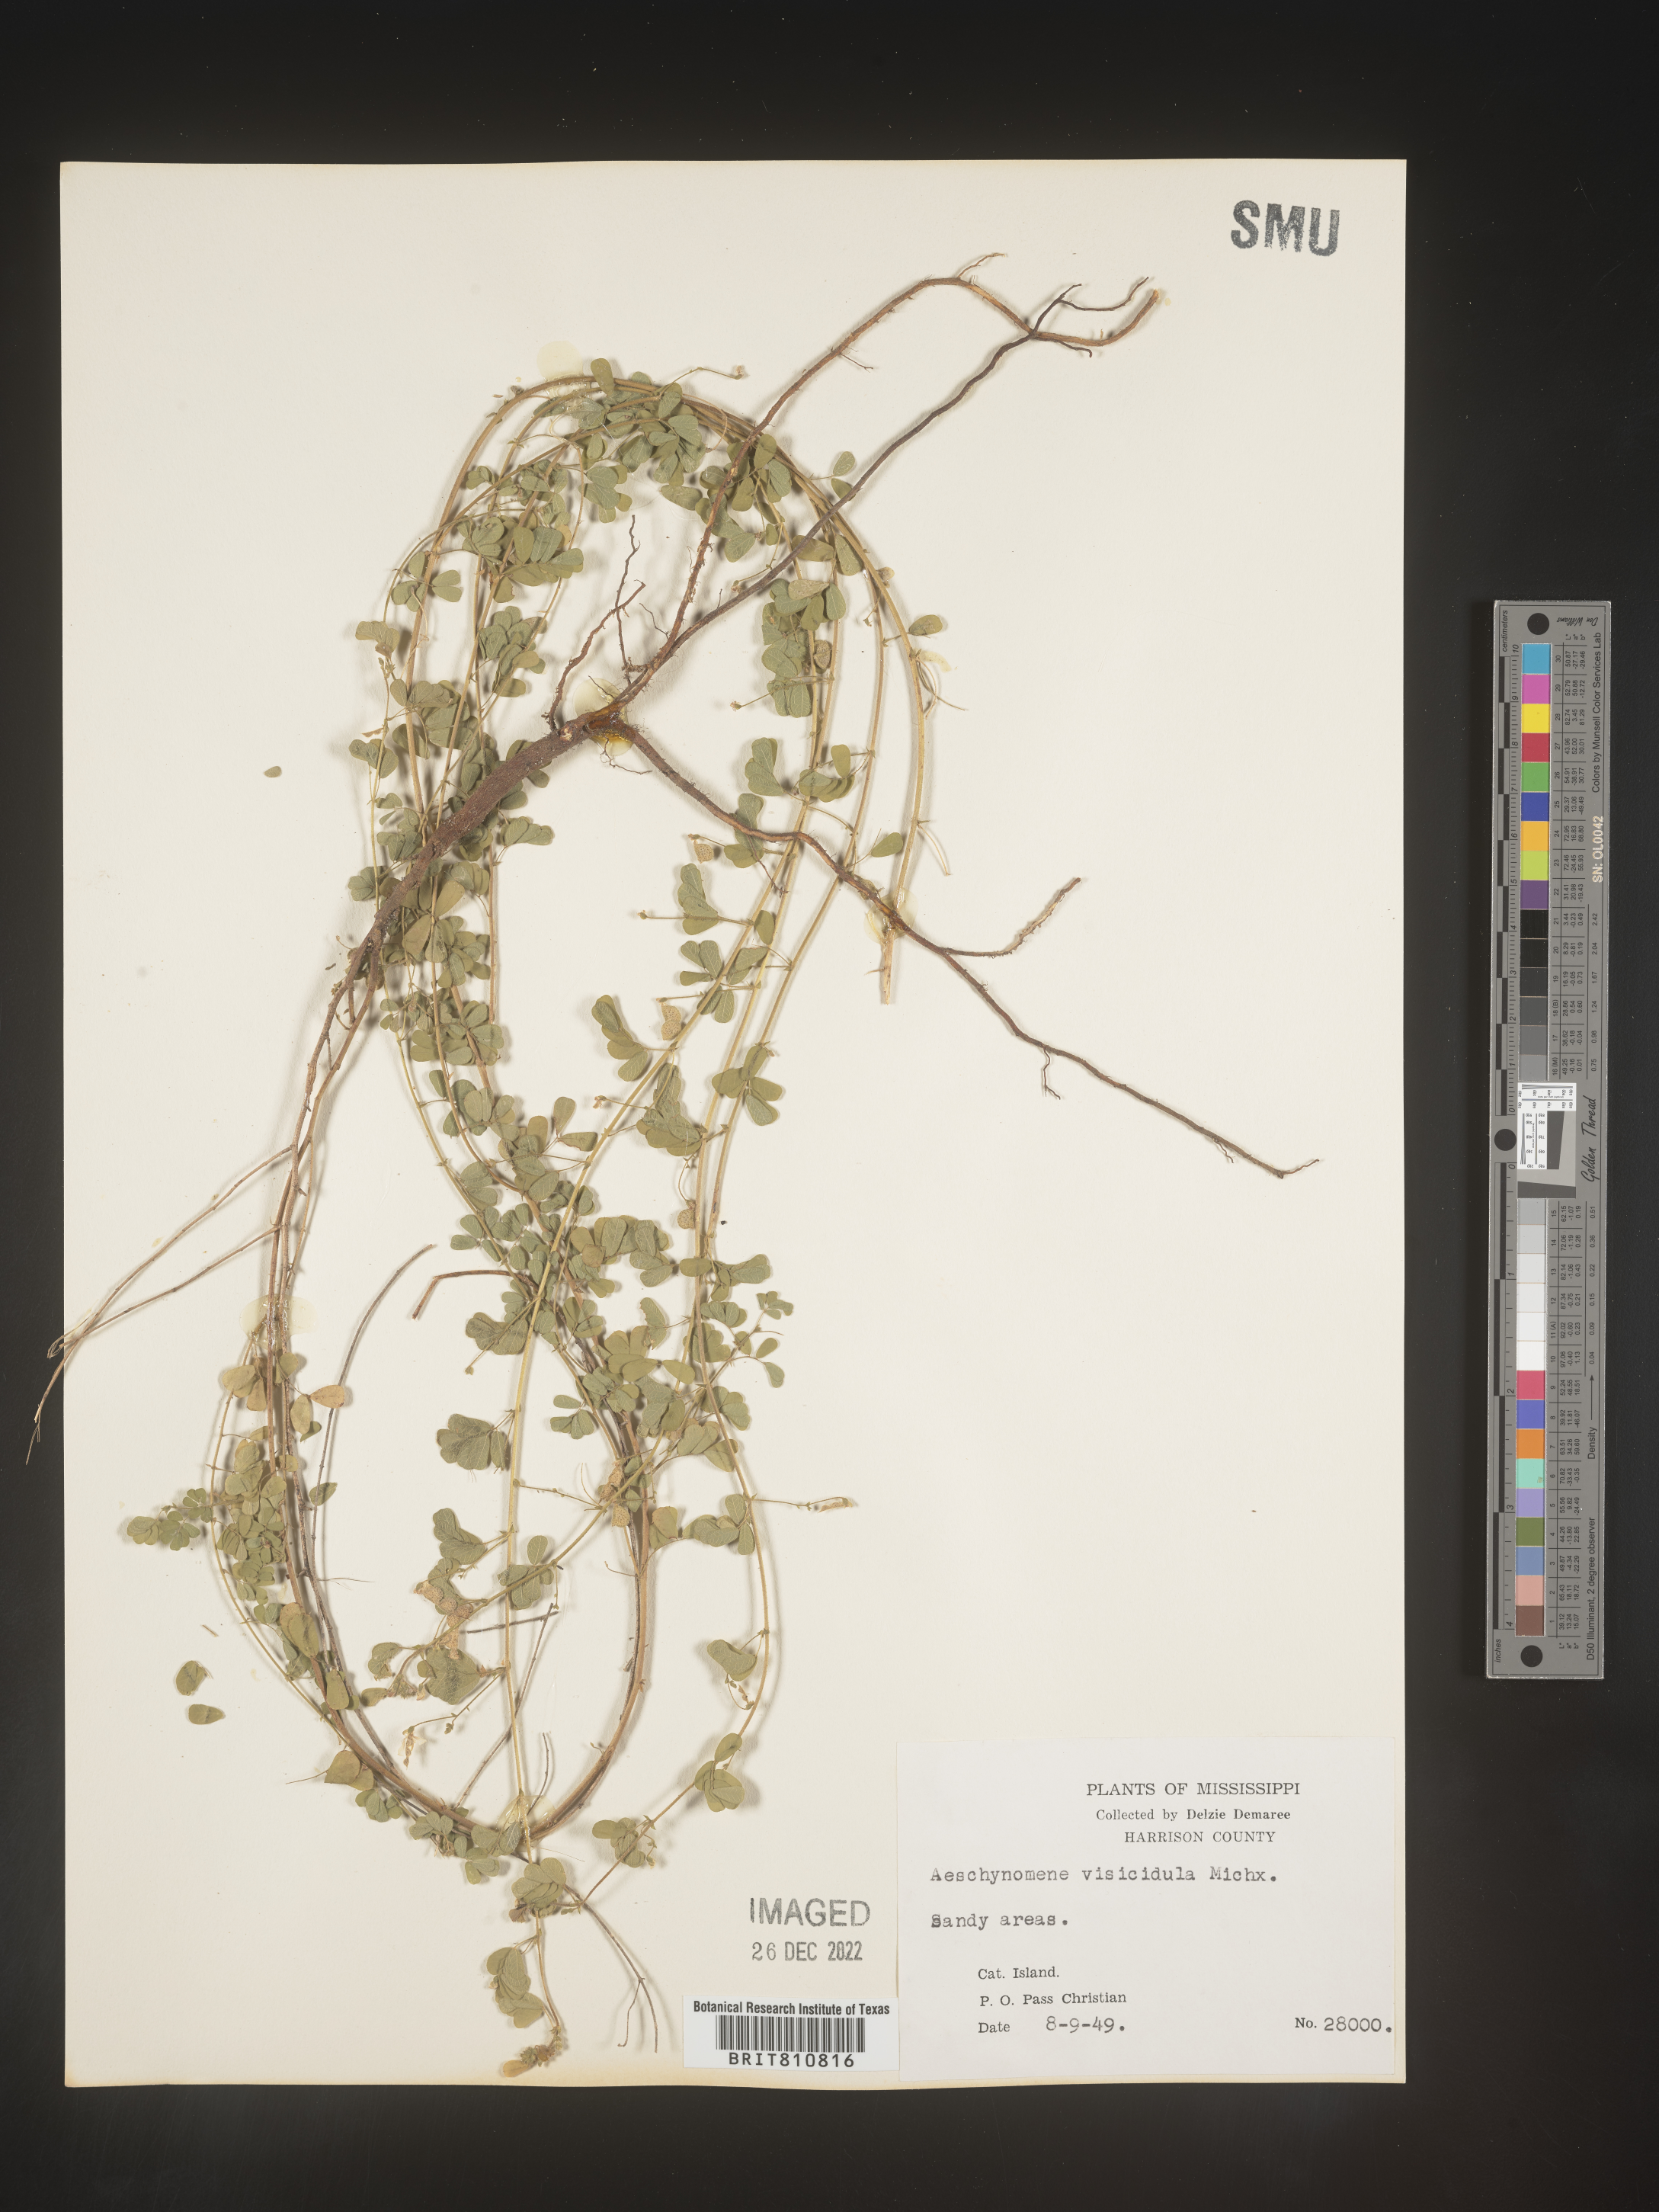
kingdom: Plantae
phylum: Tracheophyta
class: Magnoliopsida
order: Fabales
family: Fabaceae
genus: Aeschynomene
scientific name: Aeschynomene indica
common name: Indian jointvetch
